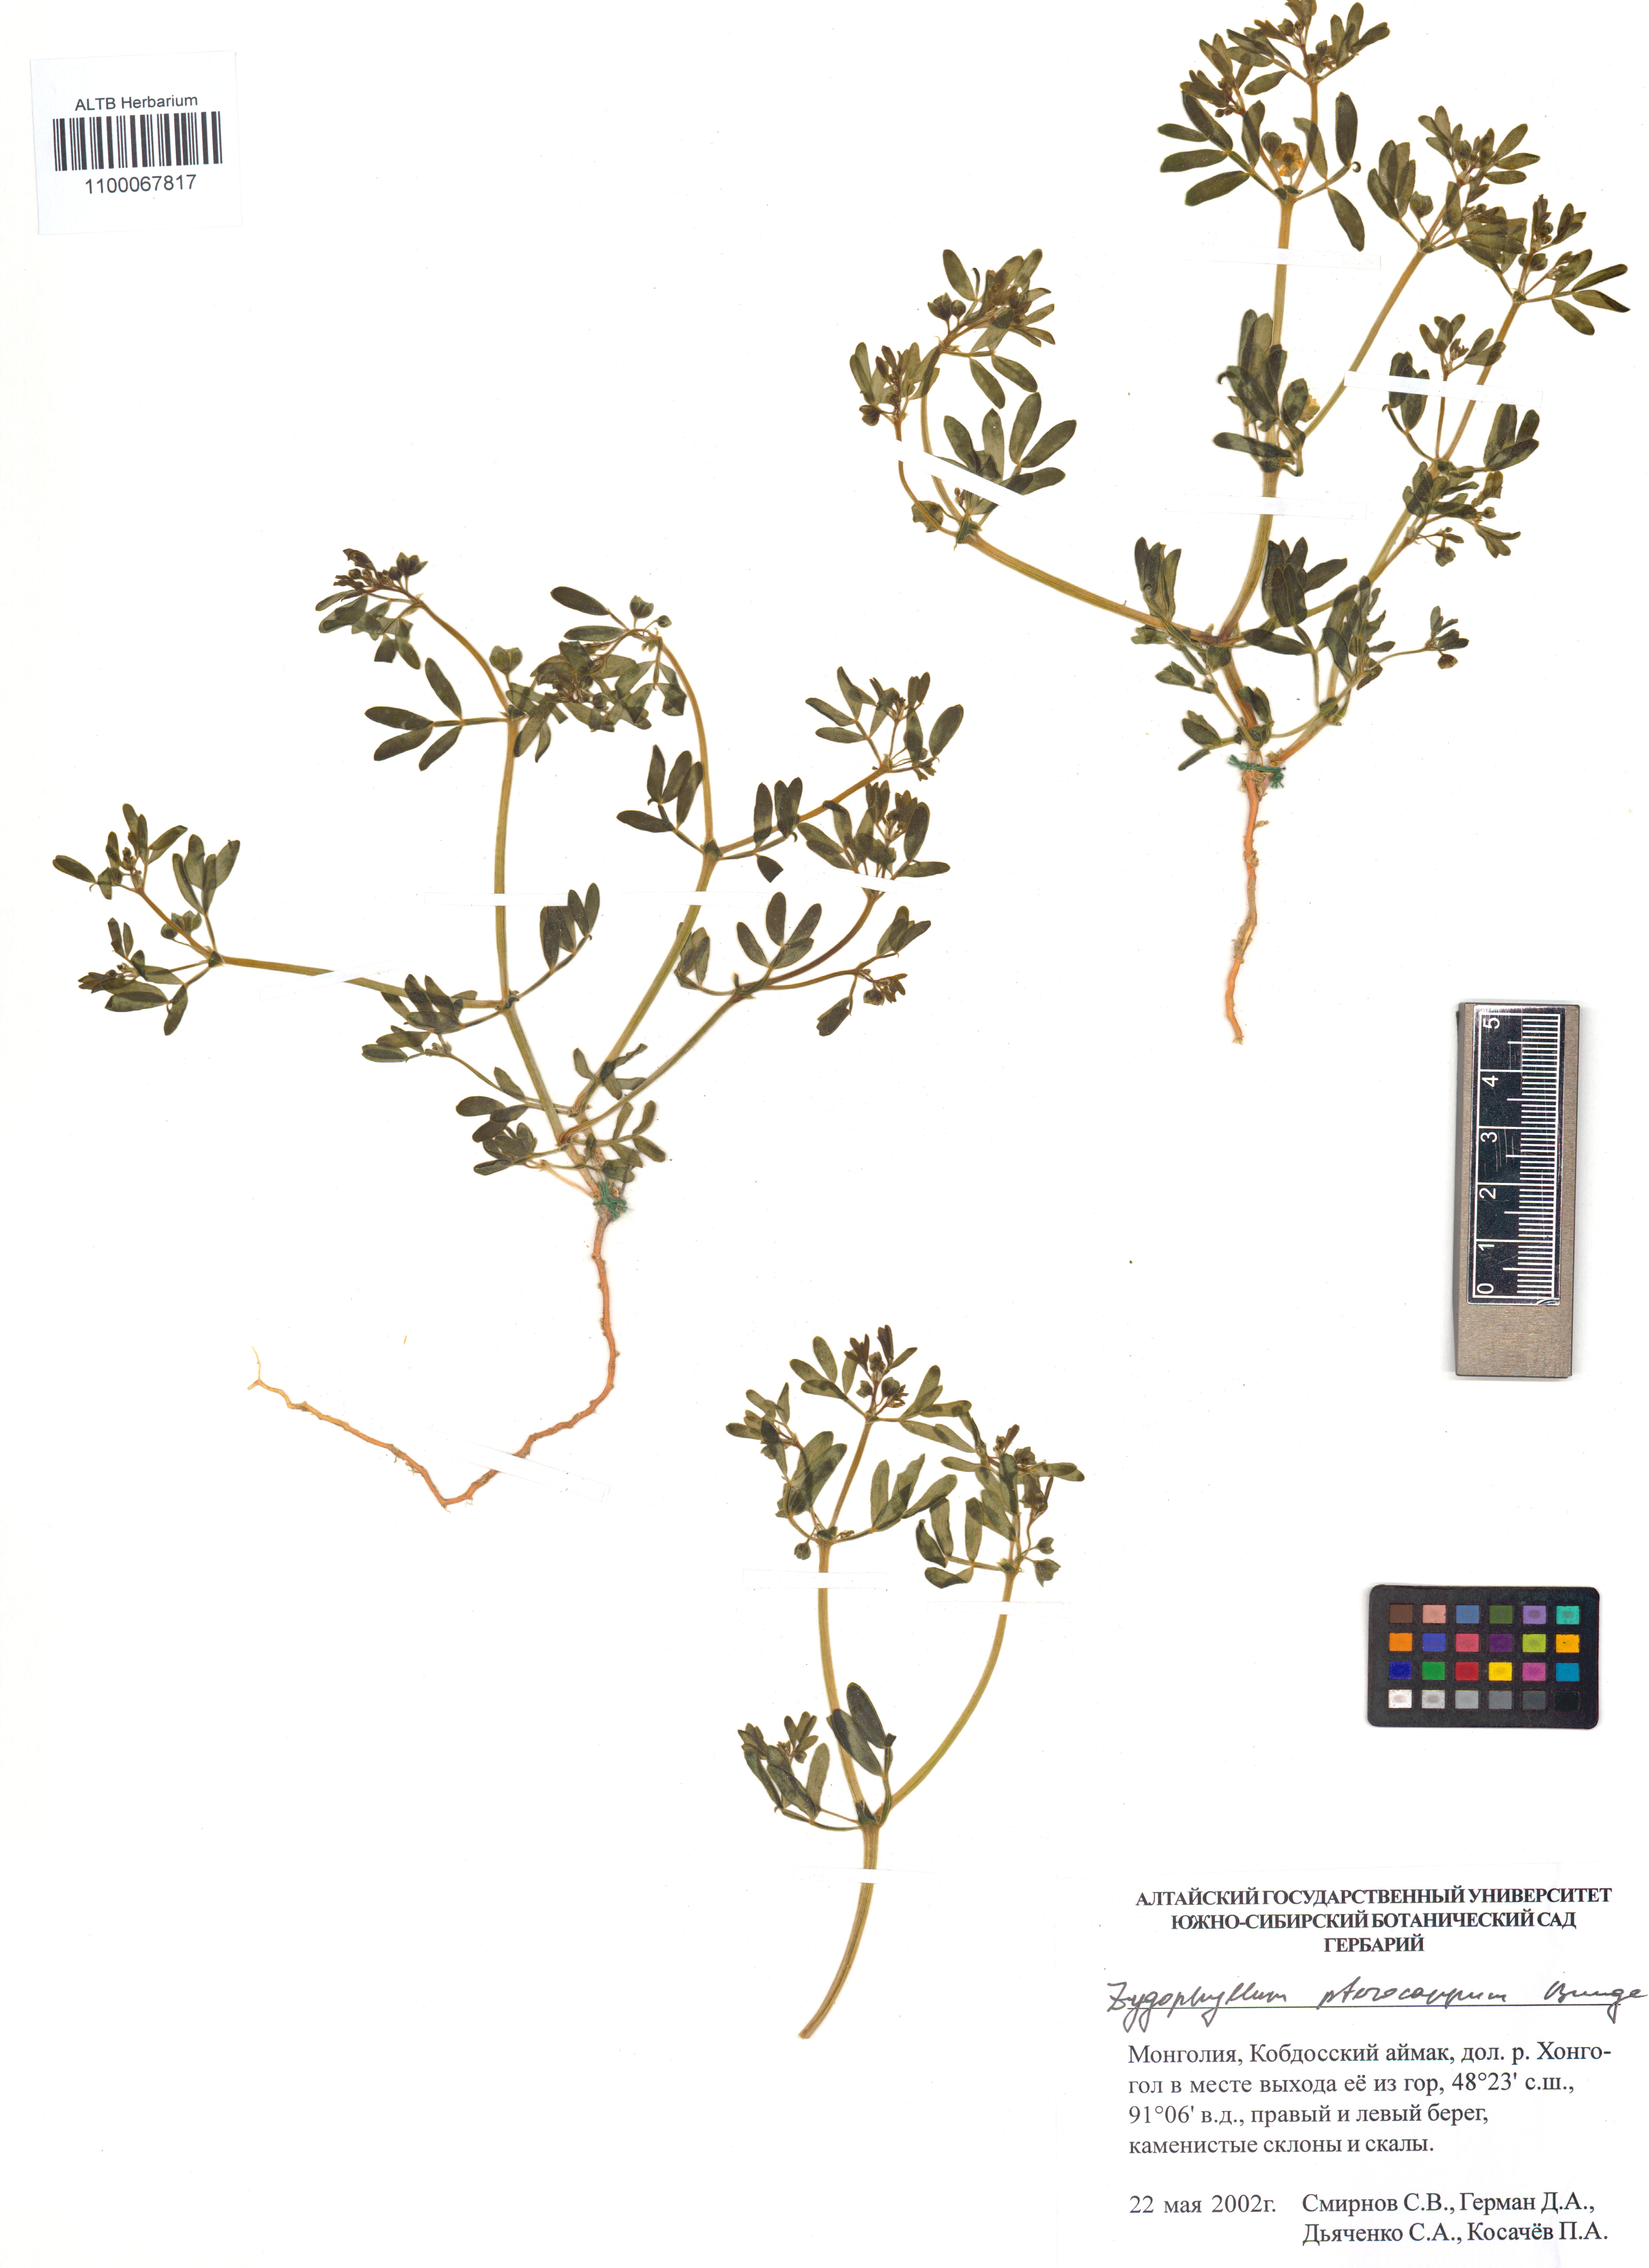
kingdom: Plantae
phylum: Tracheophyta
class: Magnoliopsida
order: Zygophyllales
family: Zygophyllaceae
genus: Zygophyllum
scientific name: Zygophyllum pterocarpum
